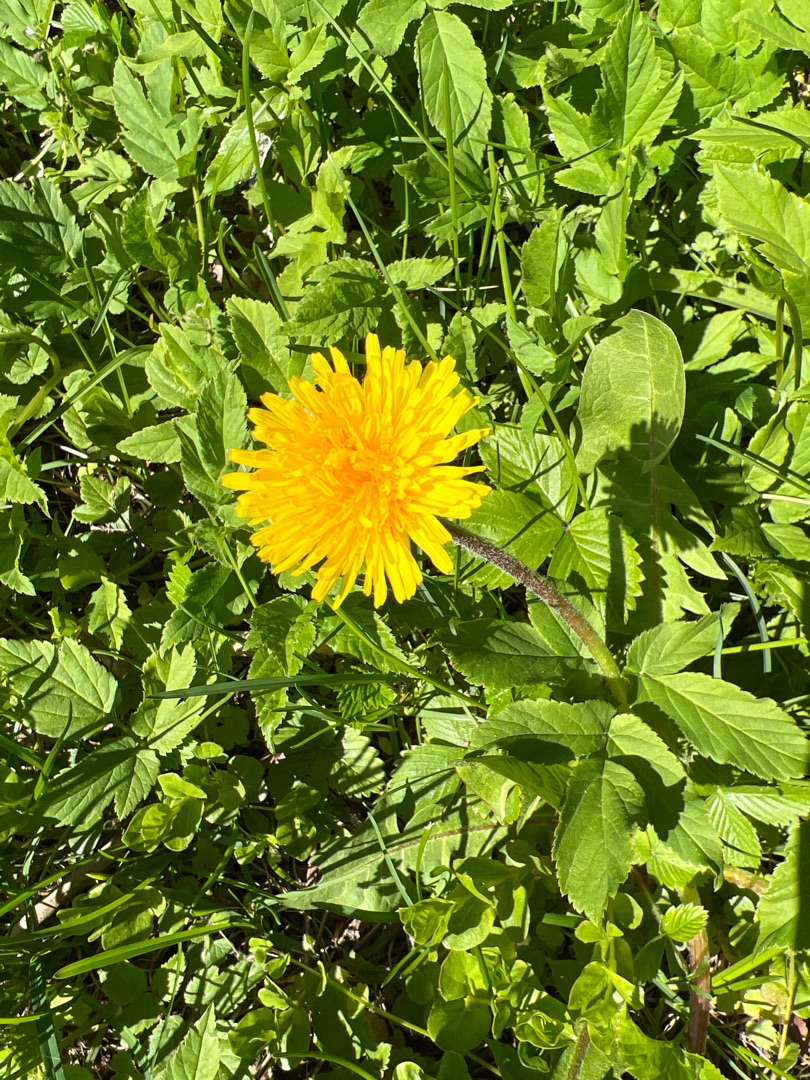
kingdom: Plantae
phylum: Tracheophyta
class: Magnoliopsida
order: Asterales
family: Asteraceae
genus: Taraxacum
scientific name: Taraxacum
